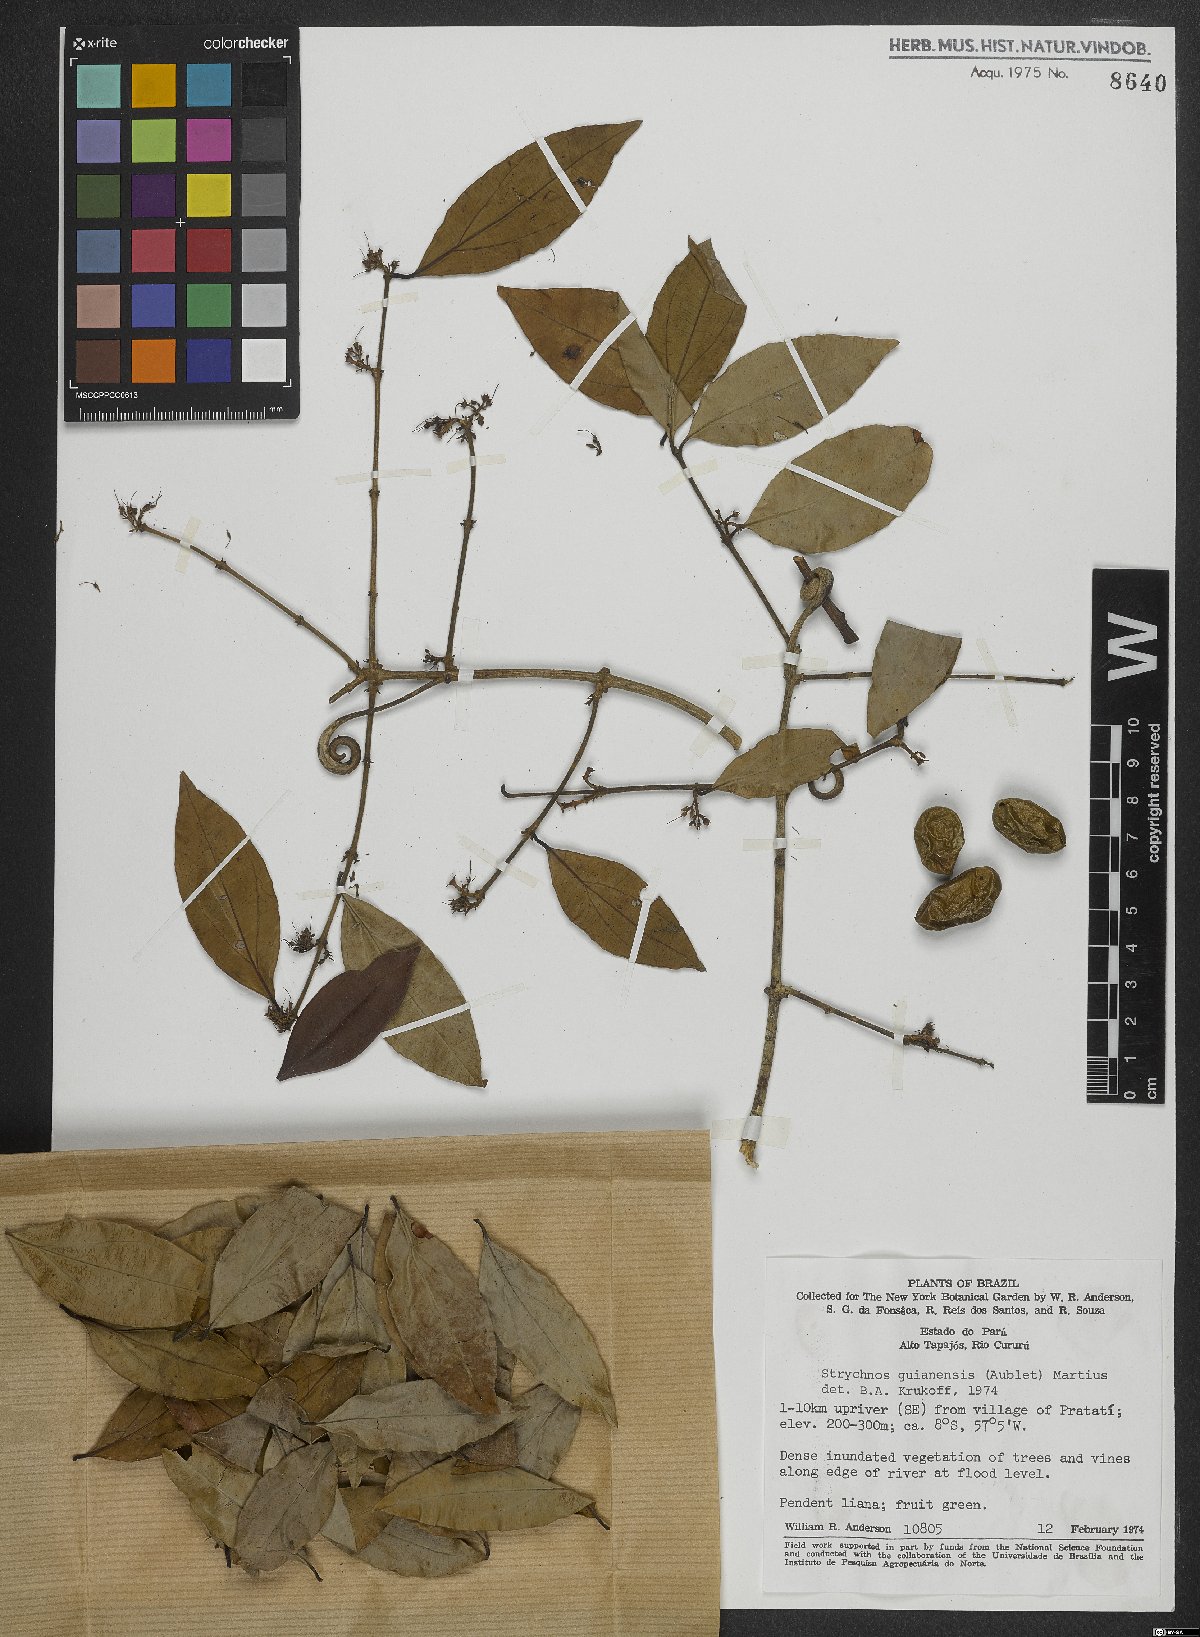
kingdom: Plantae
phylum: Tracheophyta
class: Magnoliopsida
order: Gentianales
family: Loganiaceae
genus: Strychnos
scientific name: Strychnos guianensis
